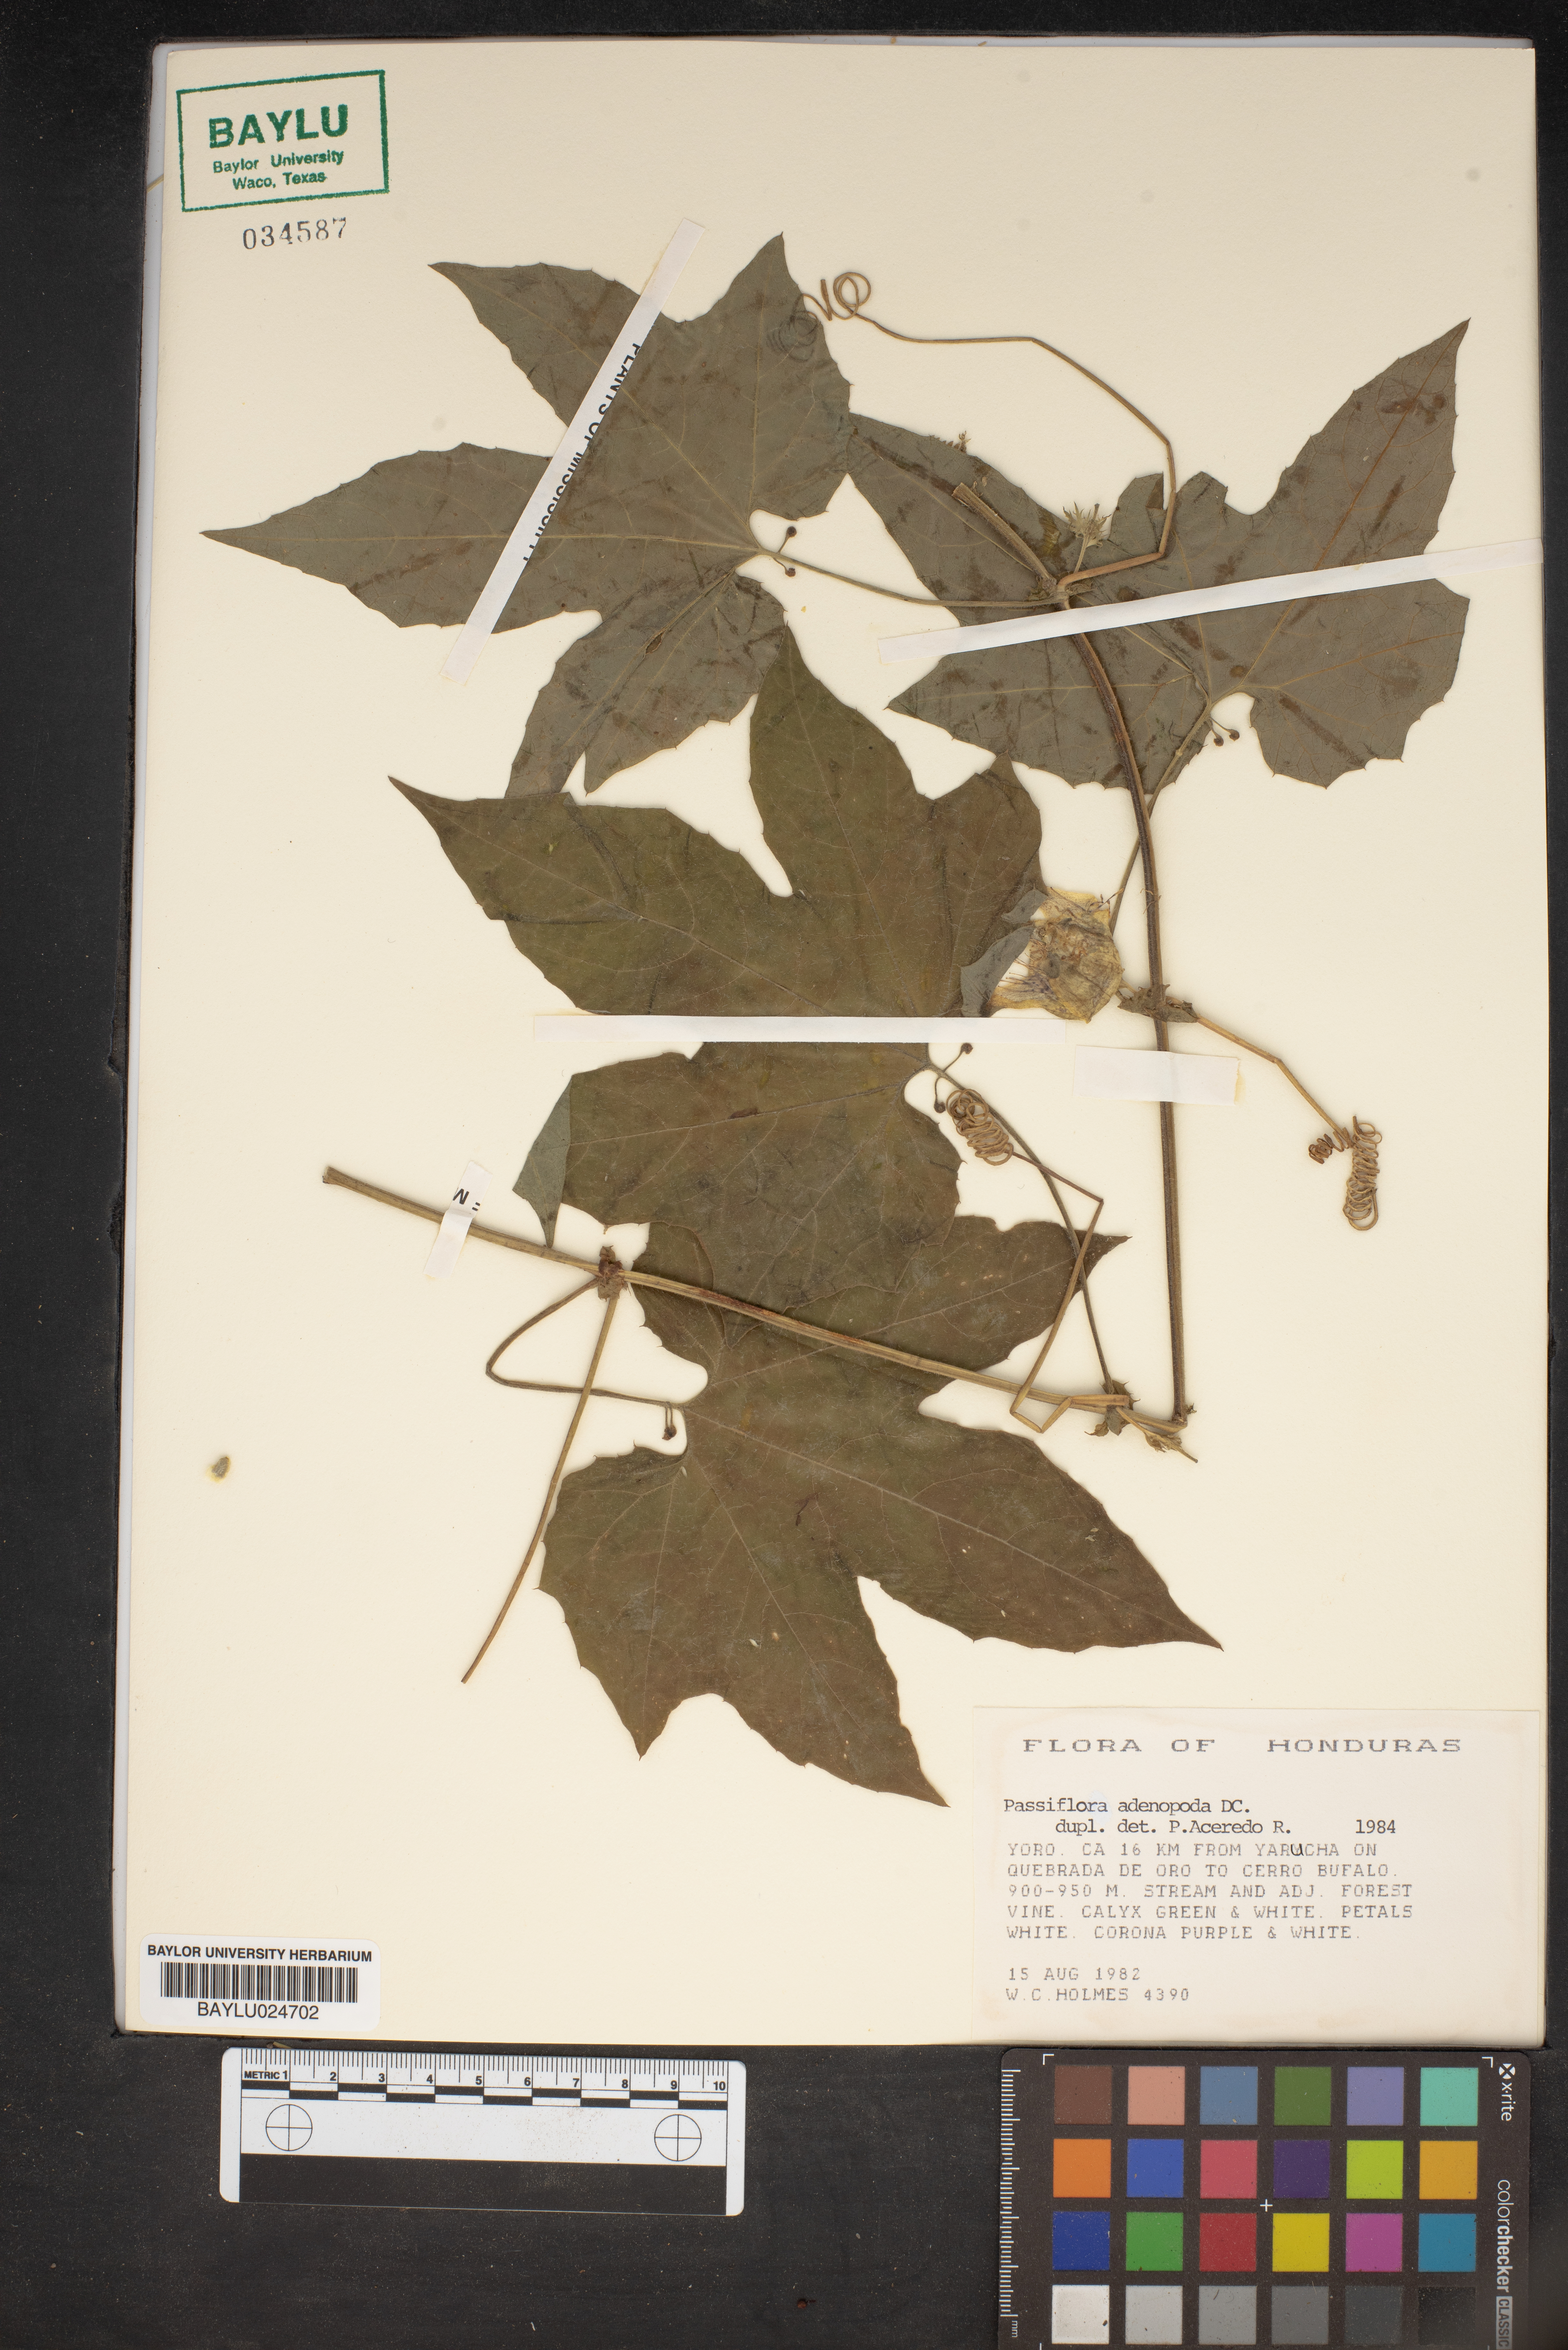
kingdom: Plantae
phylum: Tracheophyta
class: Magnoliopsida
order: Malpighiales
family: Passifloraceae
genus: Passiflora
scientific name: Passiflora adenopoda
